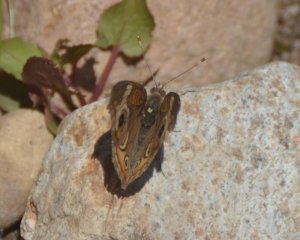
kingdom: Animalia
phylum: Arthropoda
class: Insecta
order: Lepidoptera
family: Nymphalidae
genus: Junonia
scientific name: Junonia coenia
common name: Common Buckeye
